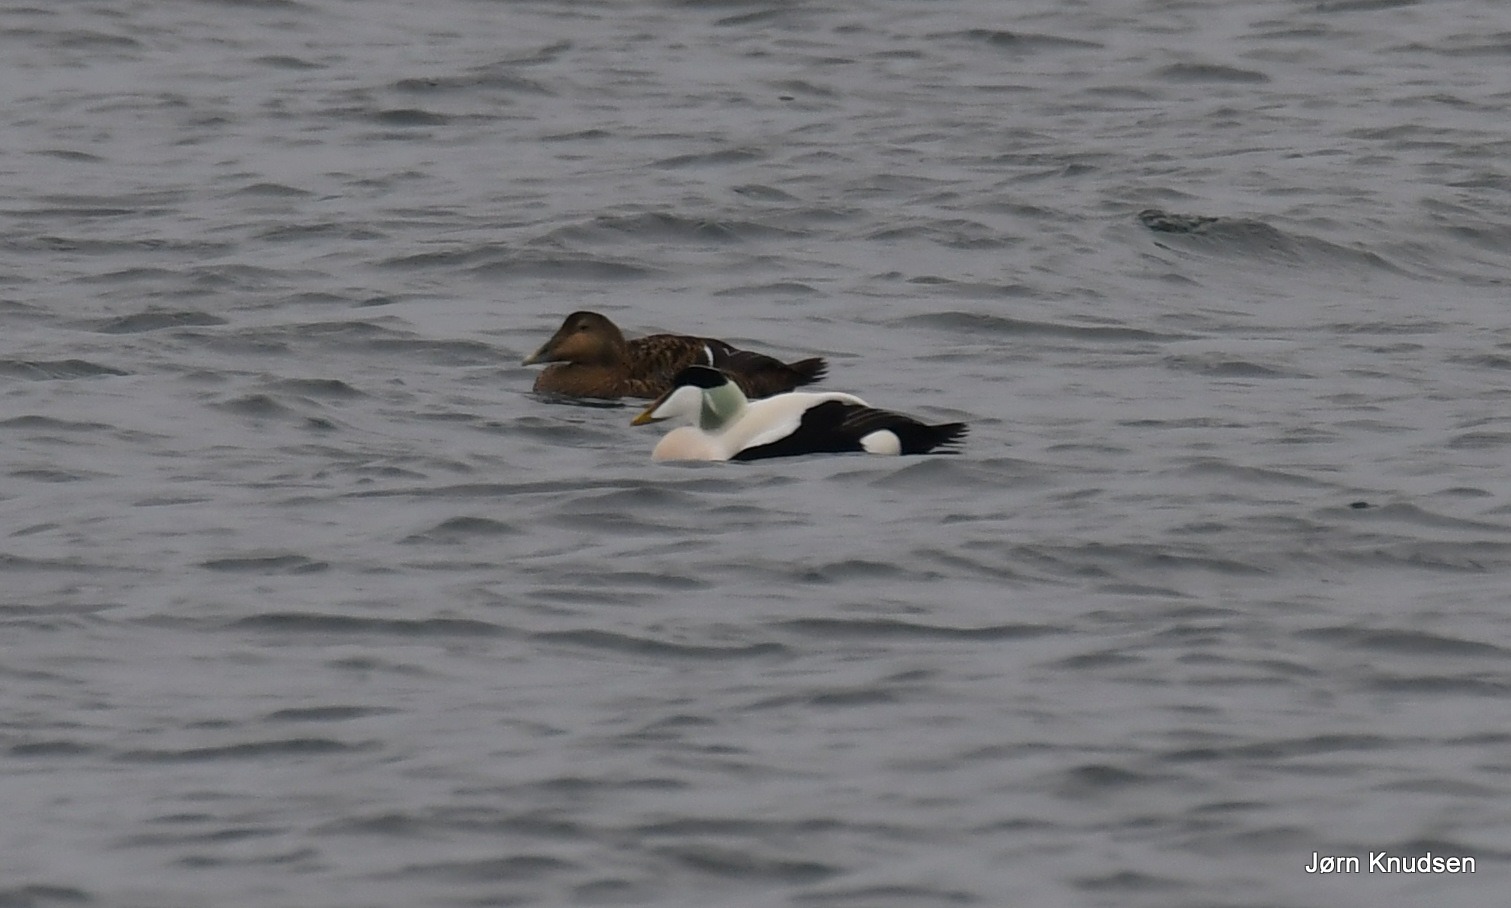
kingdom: Animalia
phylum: Chordata
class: Aves
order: Anseriformes
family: Anatidae
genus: Somateria
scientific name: Somateria mollissima
